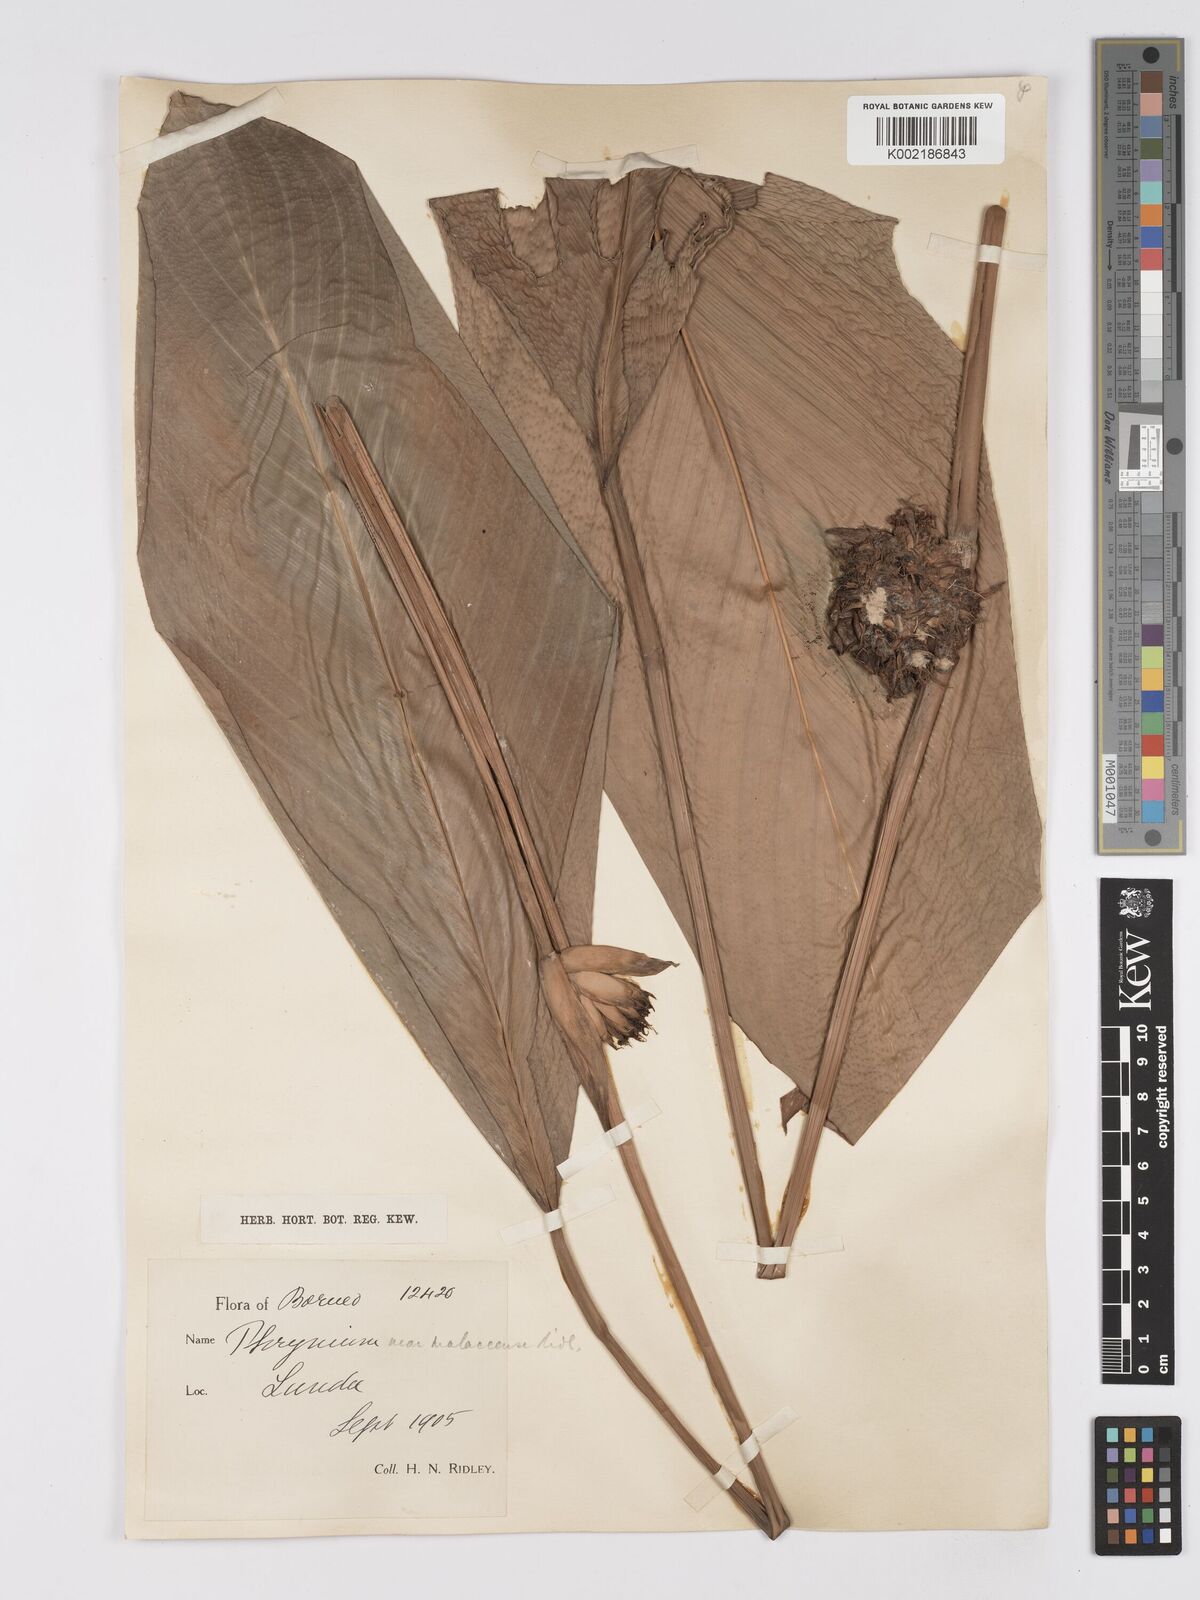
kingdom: Plantae
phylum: Tracheophyta
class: Liliopsida
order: Zingiberales
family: Marantaceae
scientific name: Marantaceae
